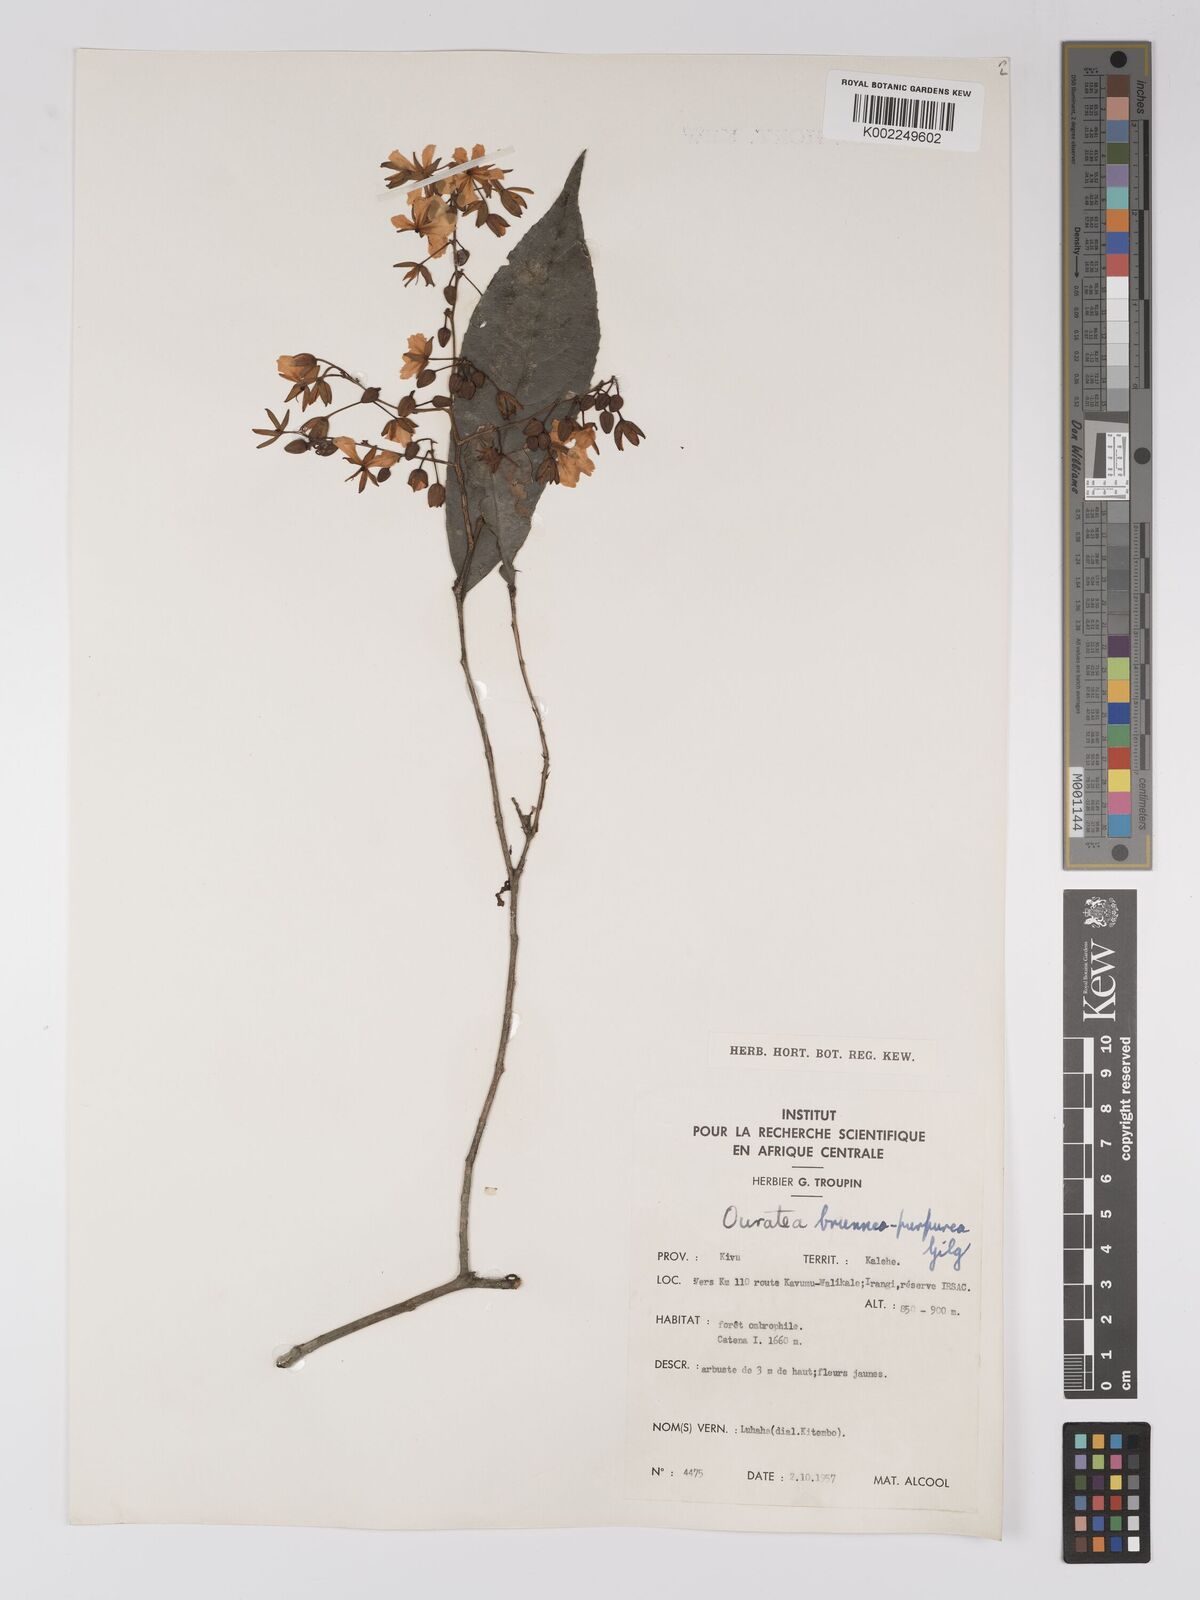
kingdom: Plantae
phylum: Tracheophyta
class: Magnoliopsida
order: Malpighiales
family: Ochnaceae
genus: Campylospermum
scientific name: Campylospermum reticulatum
